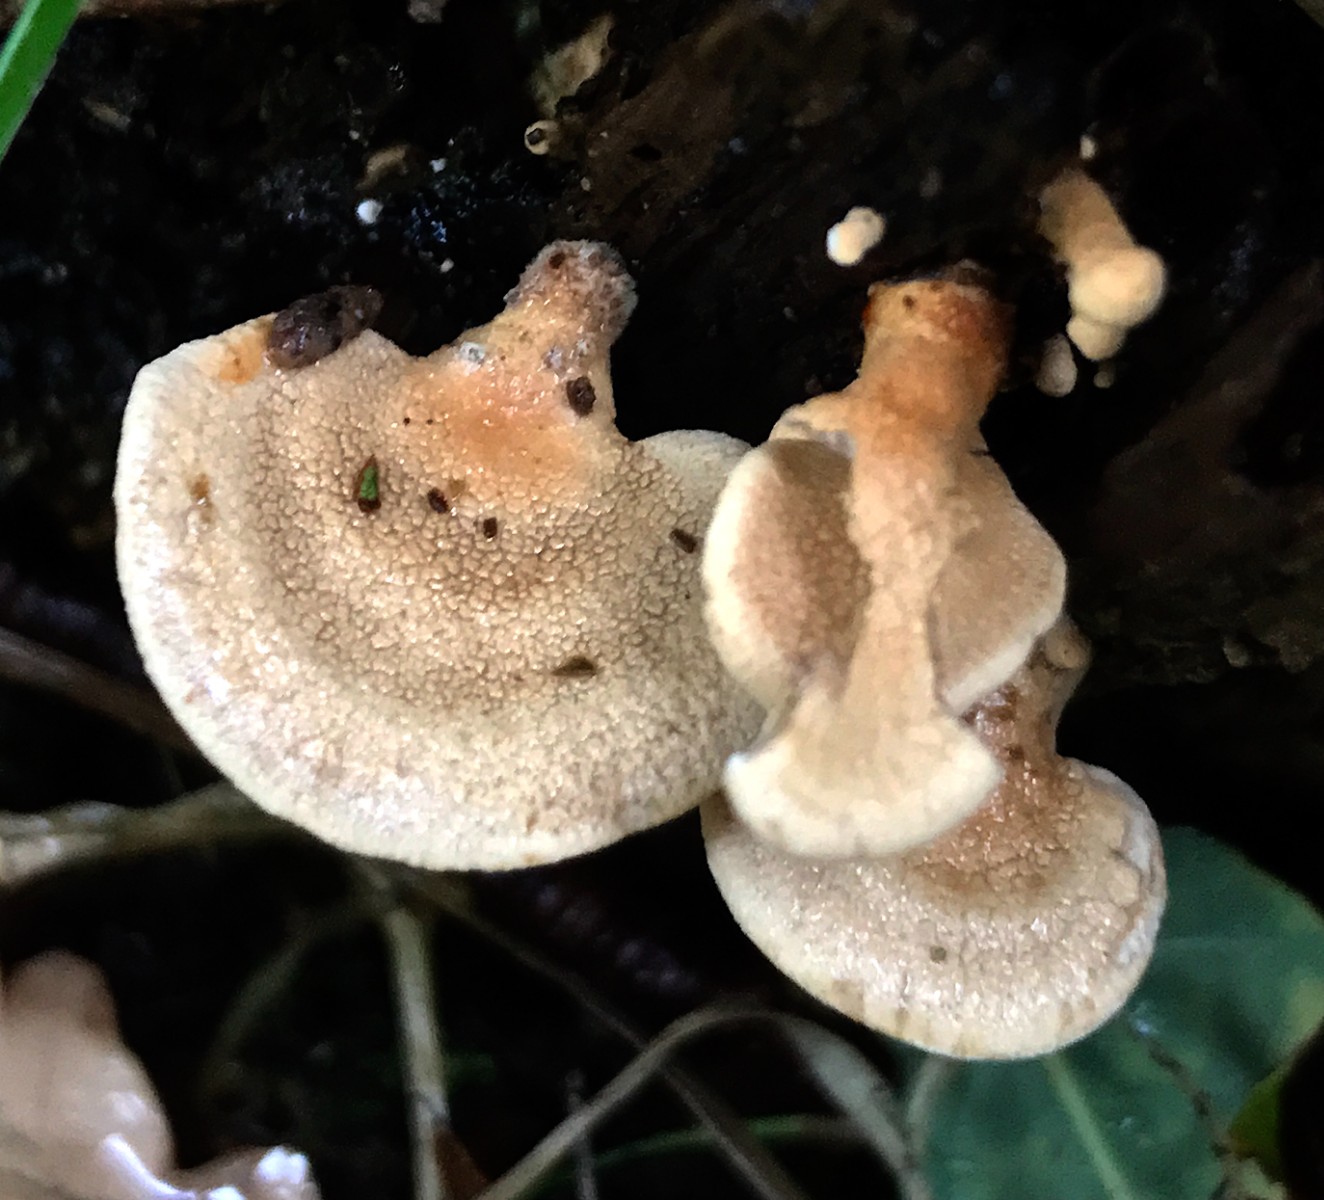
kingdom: Fungi
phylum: Basidiomycota
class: Agaricomycetes
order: Agaricales
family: Mycenaceae
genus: Panellus
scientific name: Panellus stipticus
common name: kliddet epaulethat
